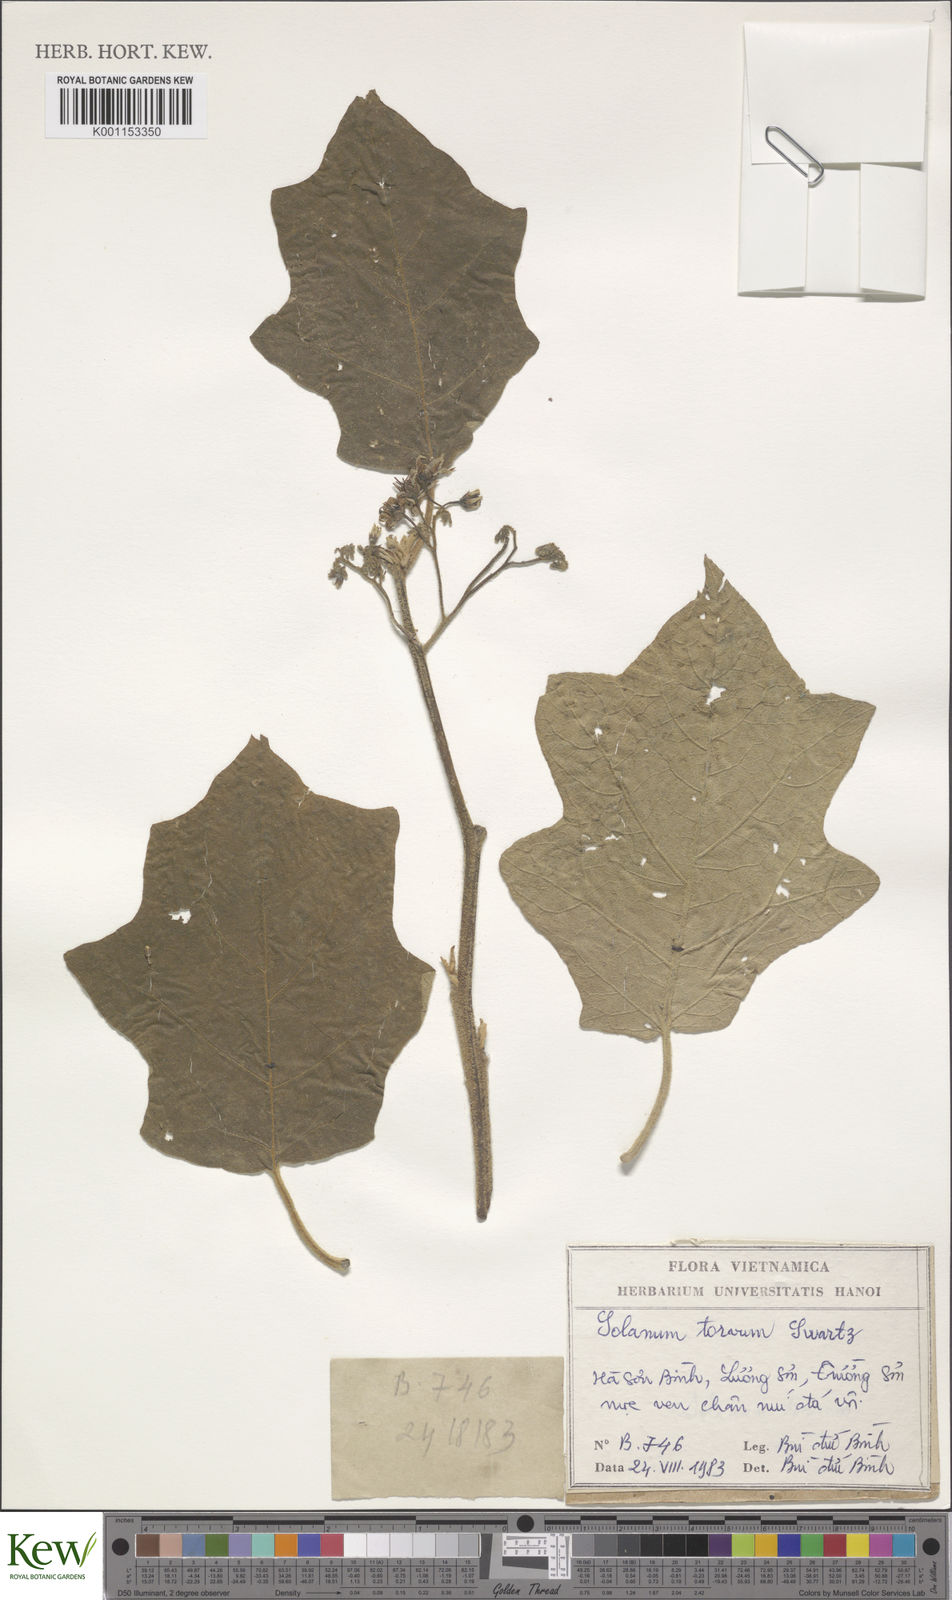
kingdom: Plantae
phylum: Tracheophyta
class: Magnoliopsida
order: Solanales
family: Solanaceae
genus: Solanum
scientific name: Solanum torvum
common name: Turkey berry
